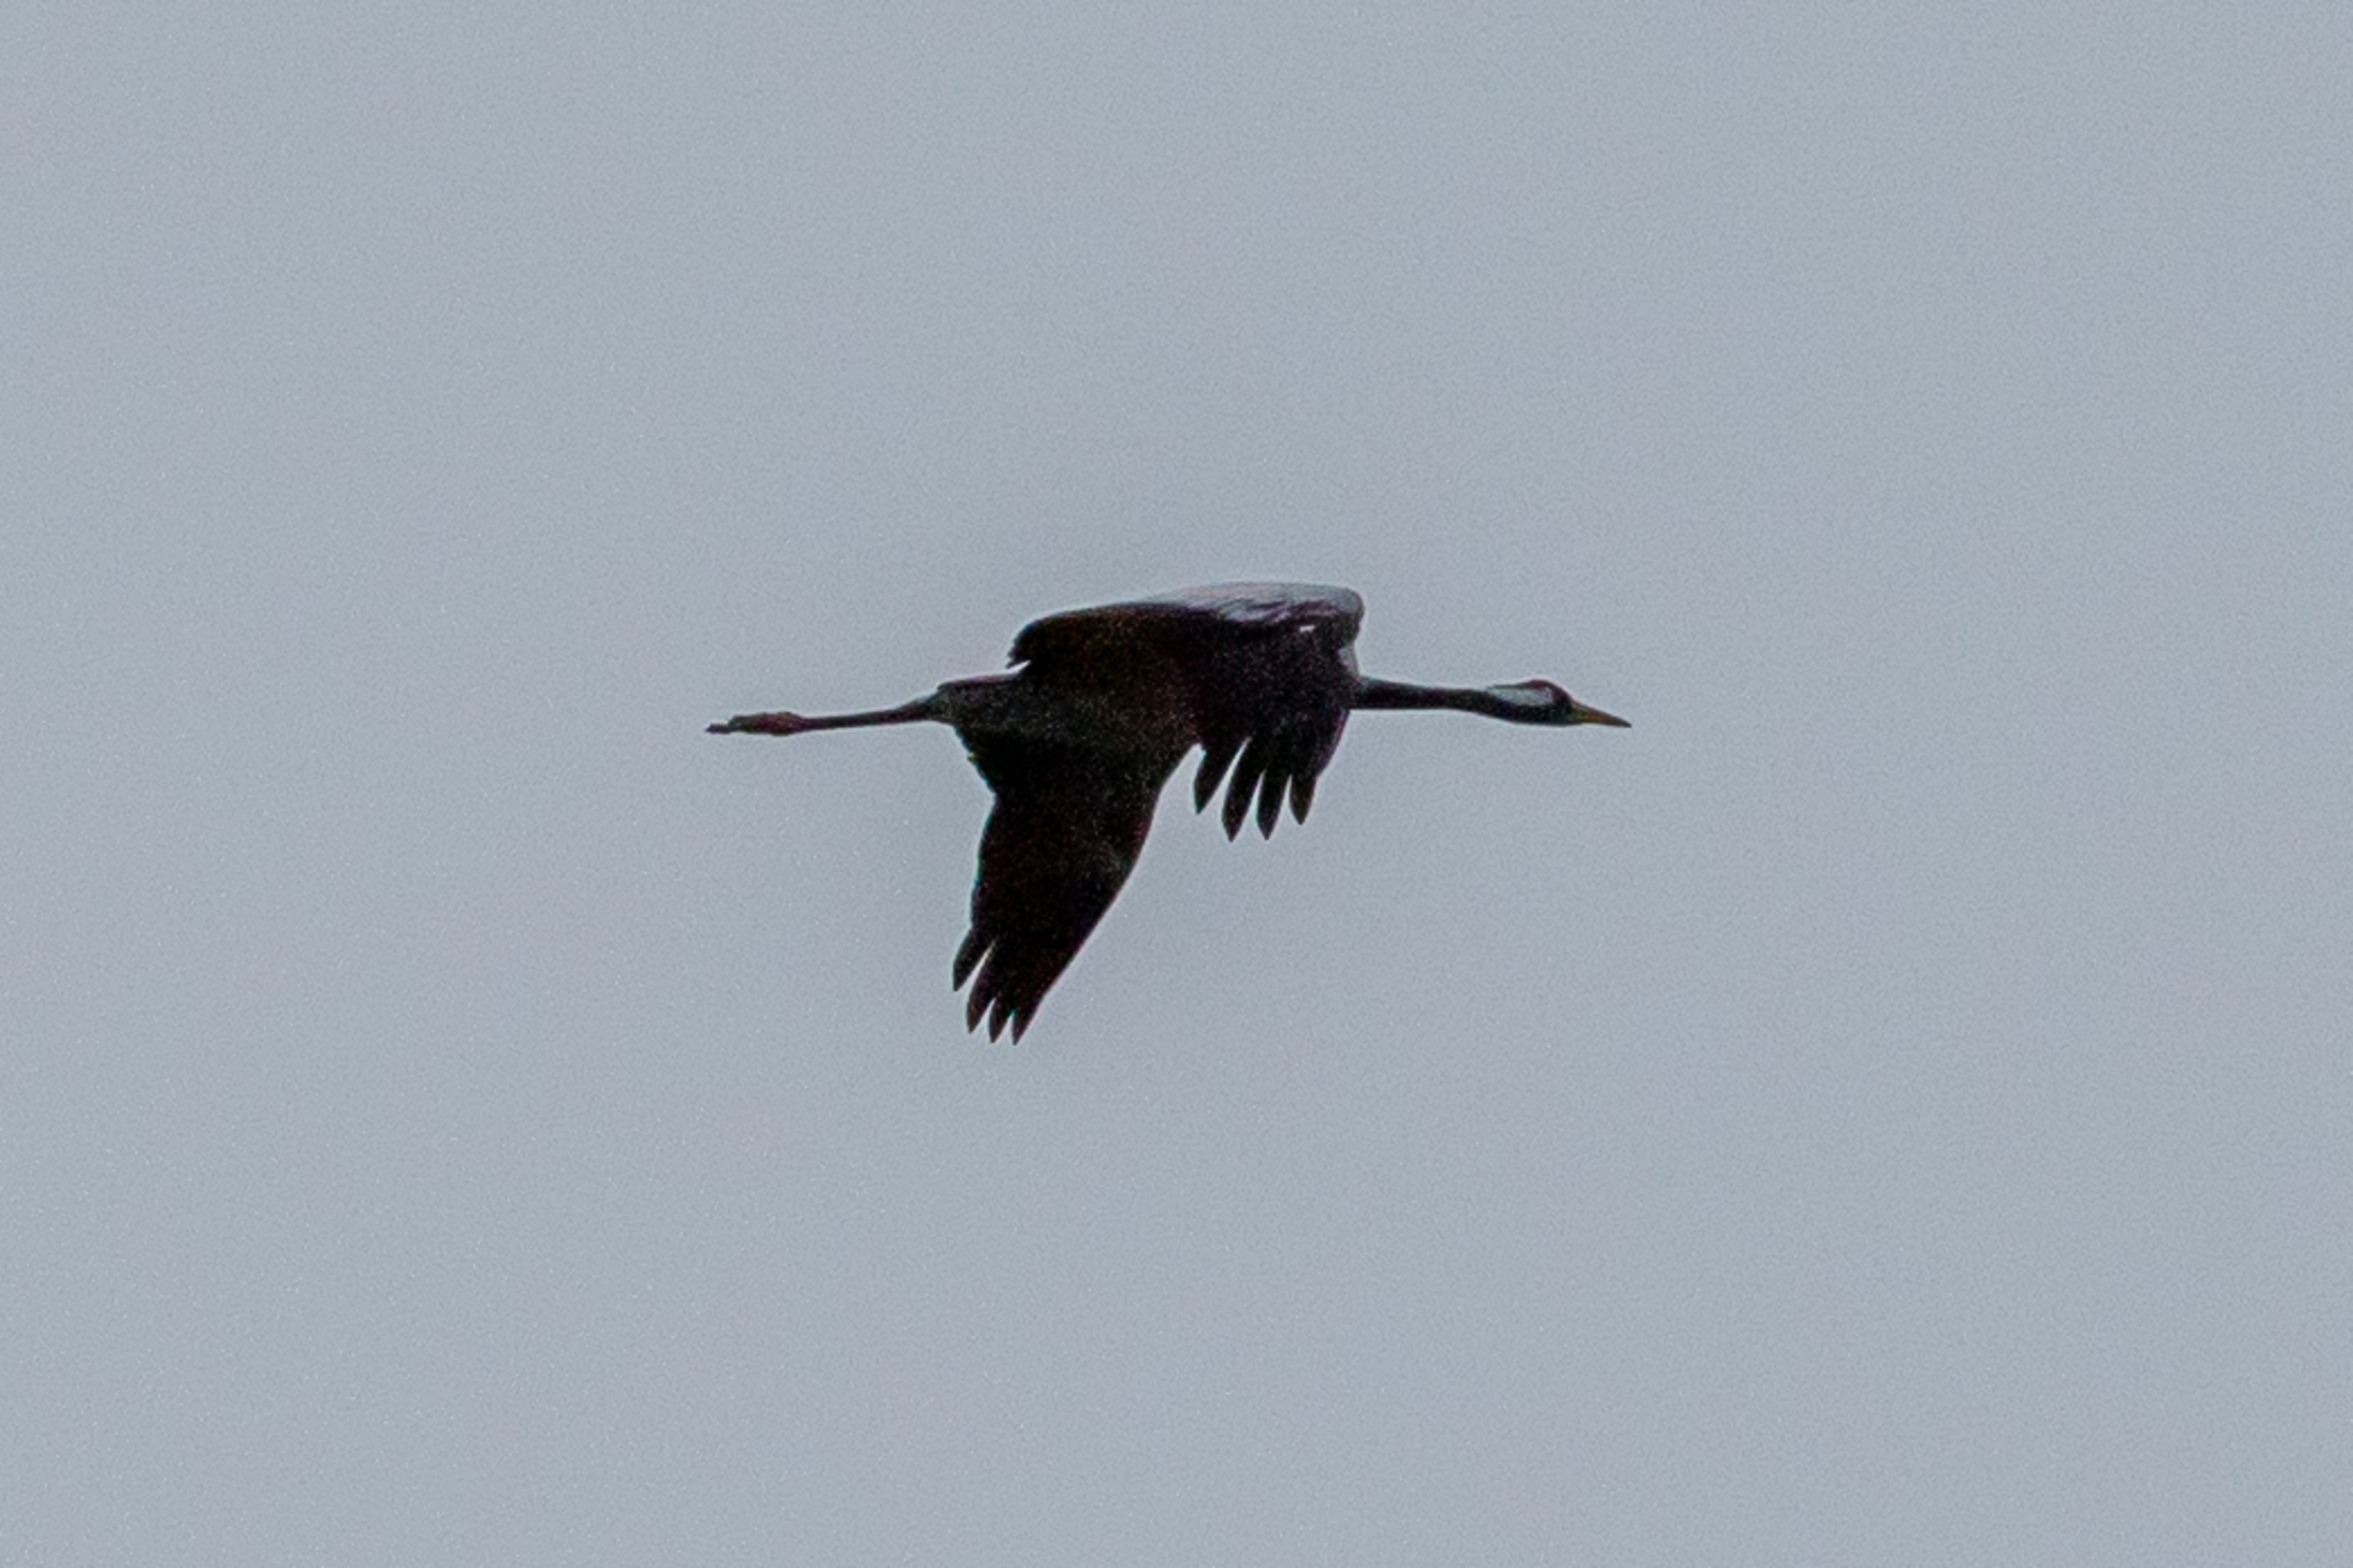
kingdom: Animalia
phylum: Chordata
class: Aves
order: Gruiformes
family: Gruidae
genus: Grus
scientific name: Grus grus
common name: Trane
